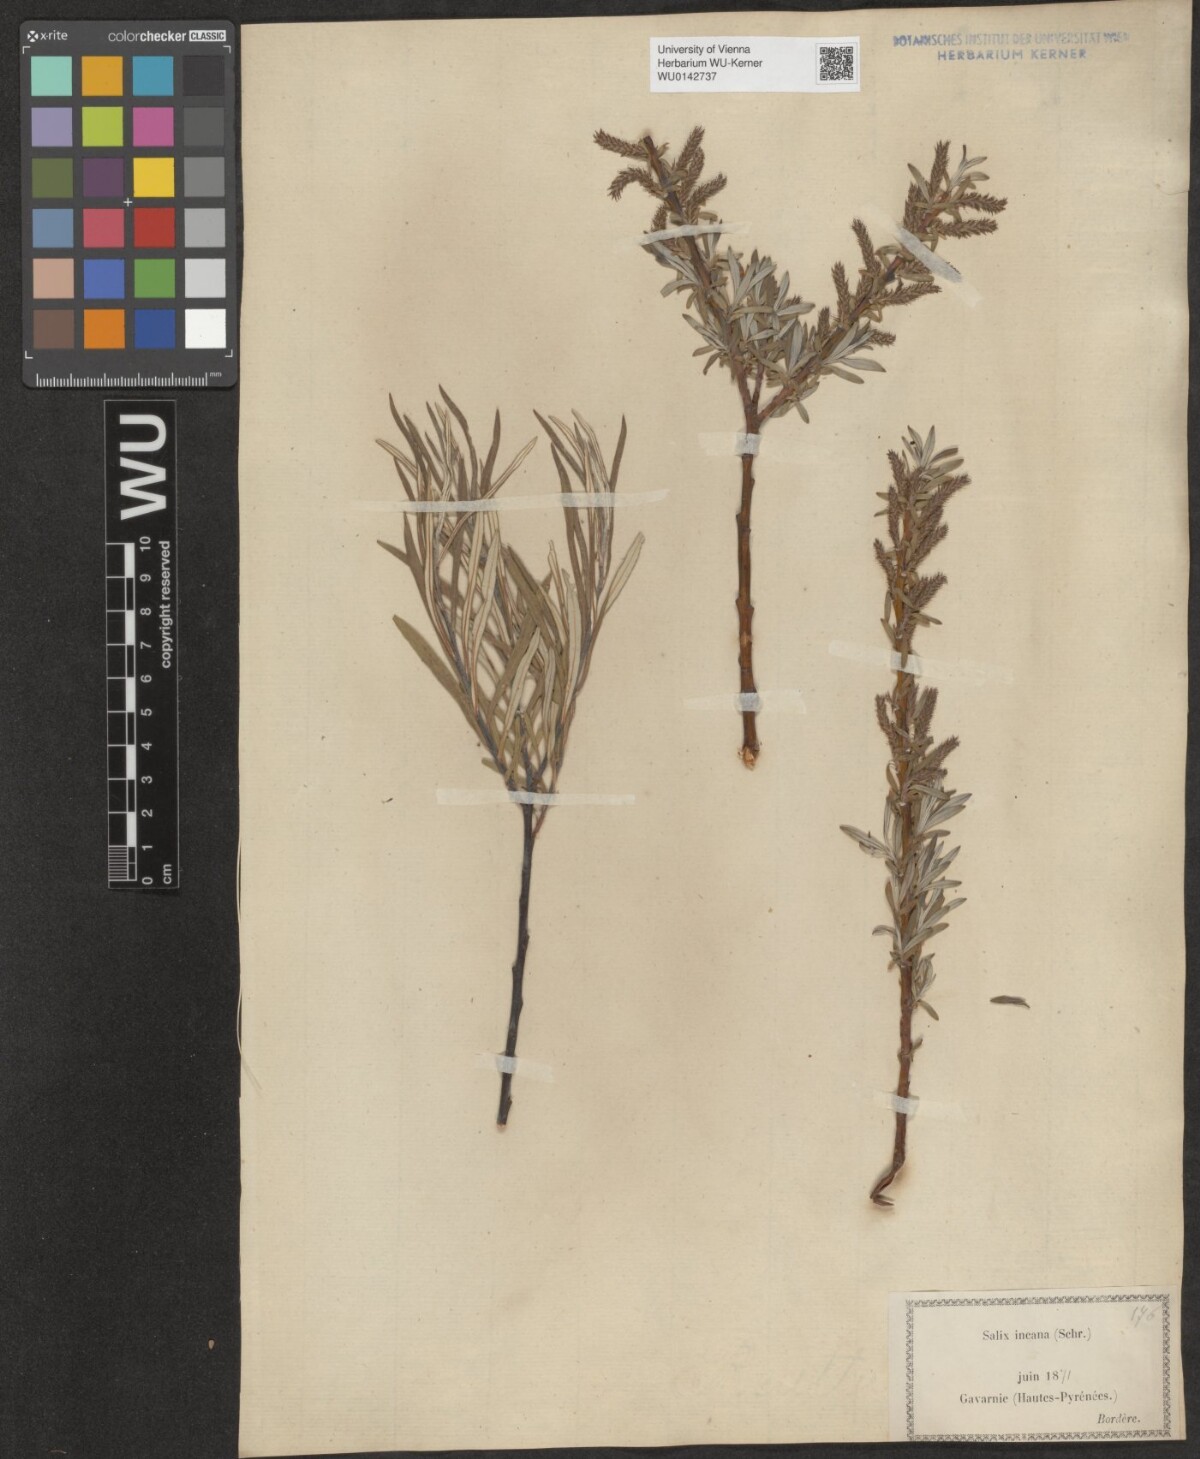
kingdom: Plantae
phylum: Tracheophyta
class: Magnoliopsida
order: Malpighiales
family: Salicaceae
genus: Salix
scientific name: Salix eleagnos
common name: Elaeagnus willow
